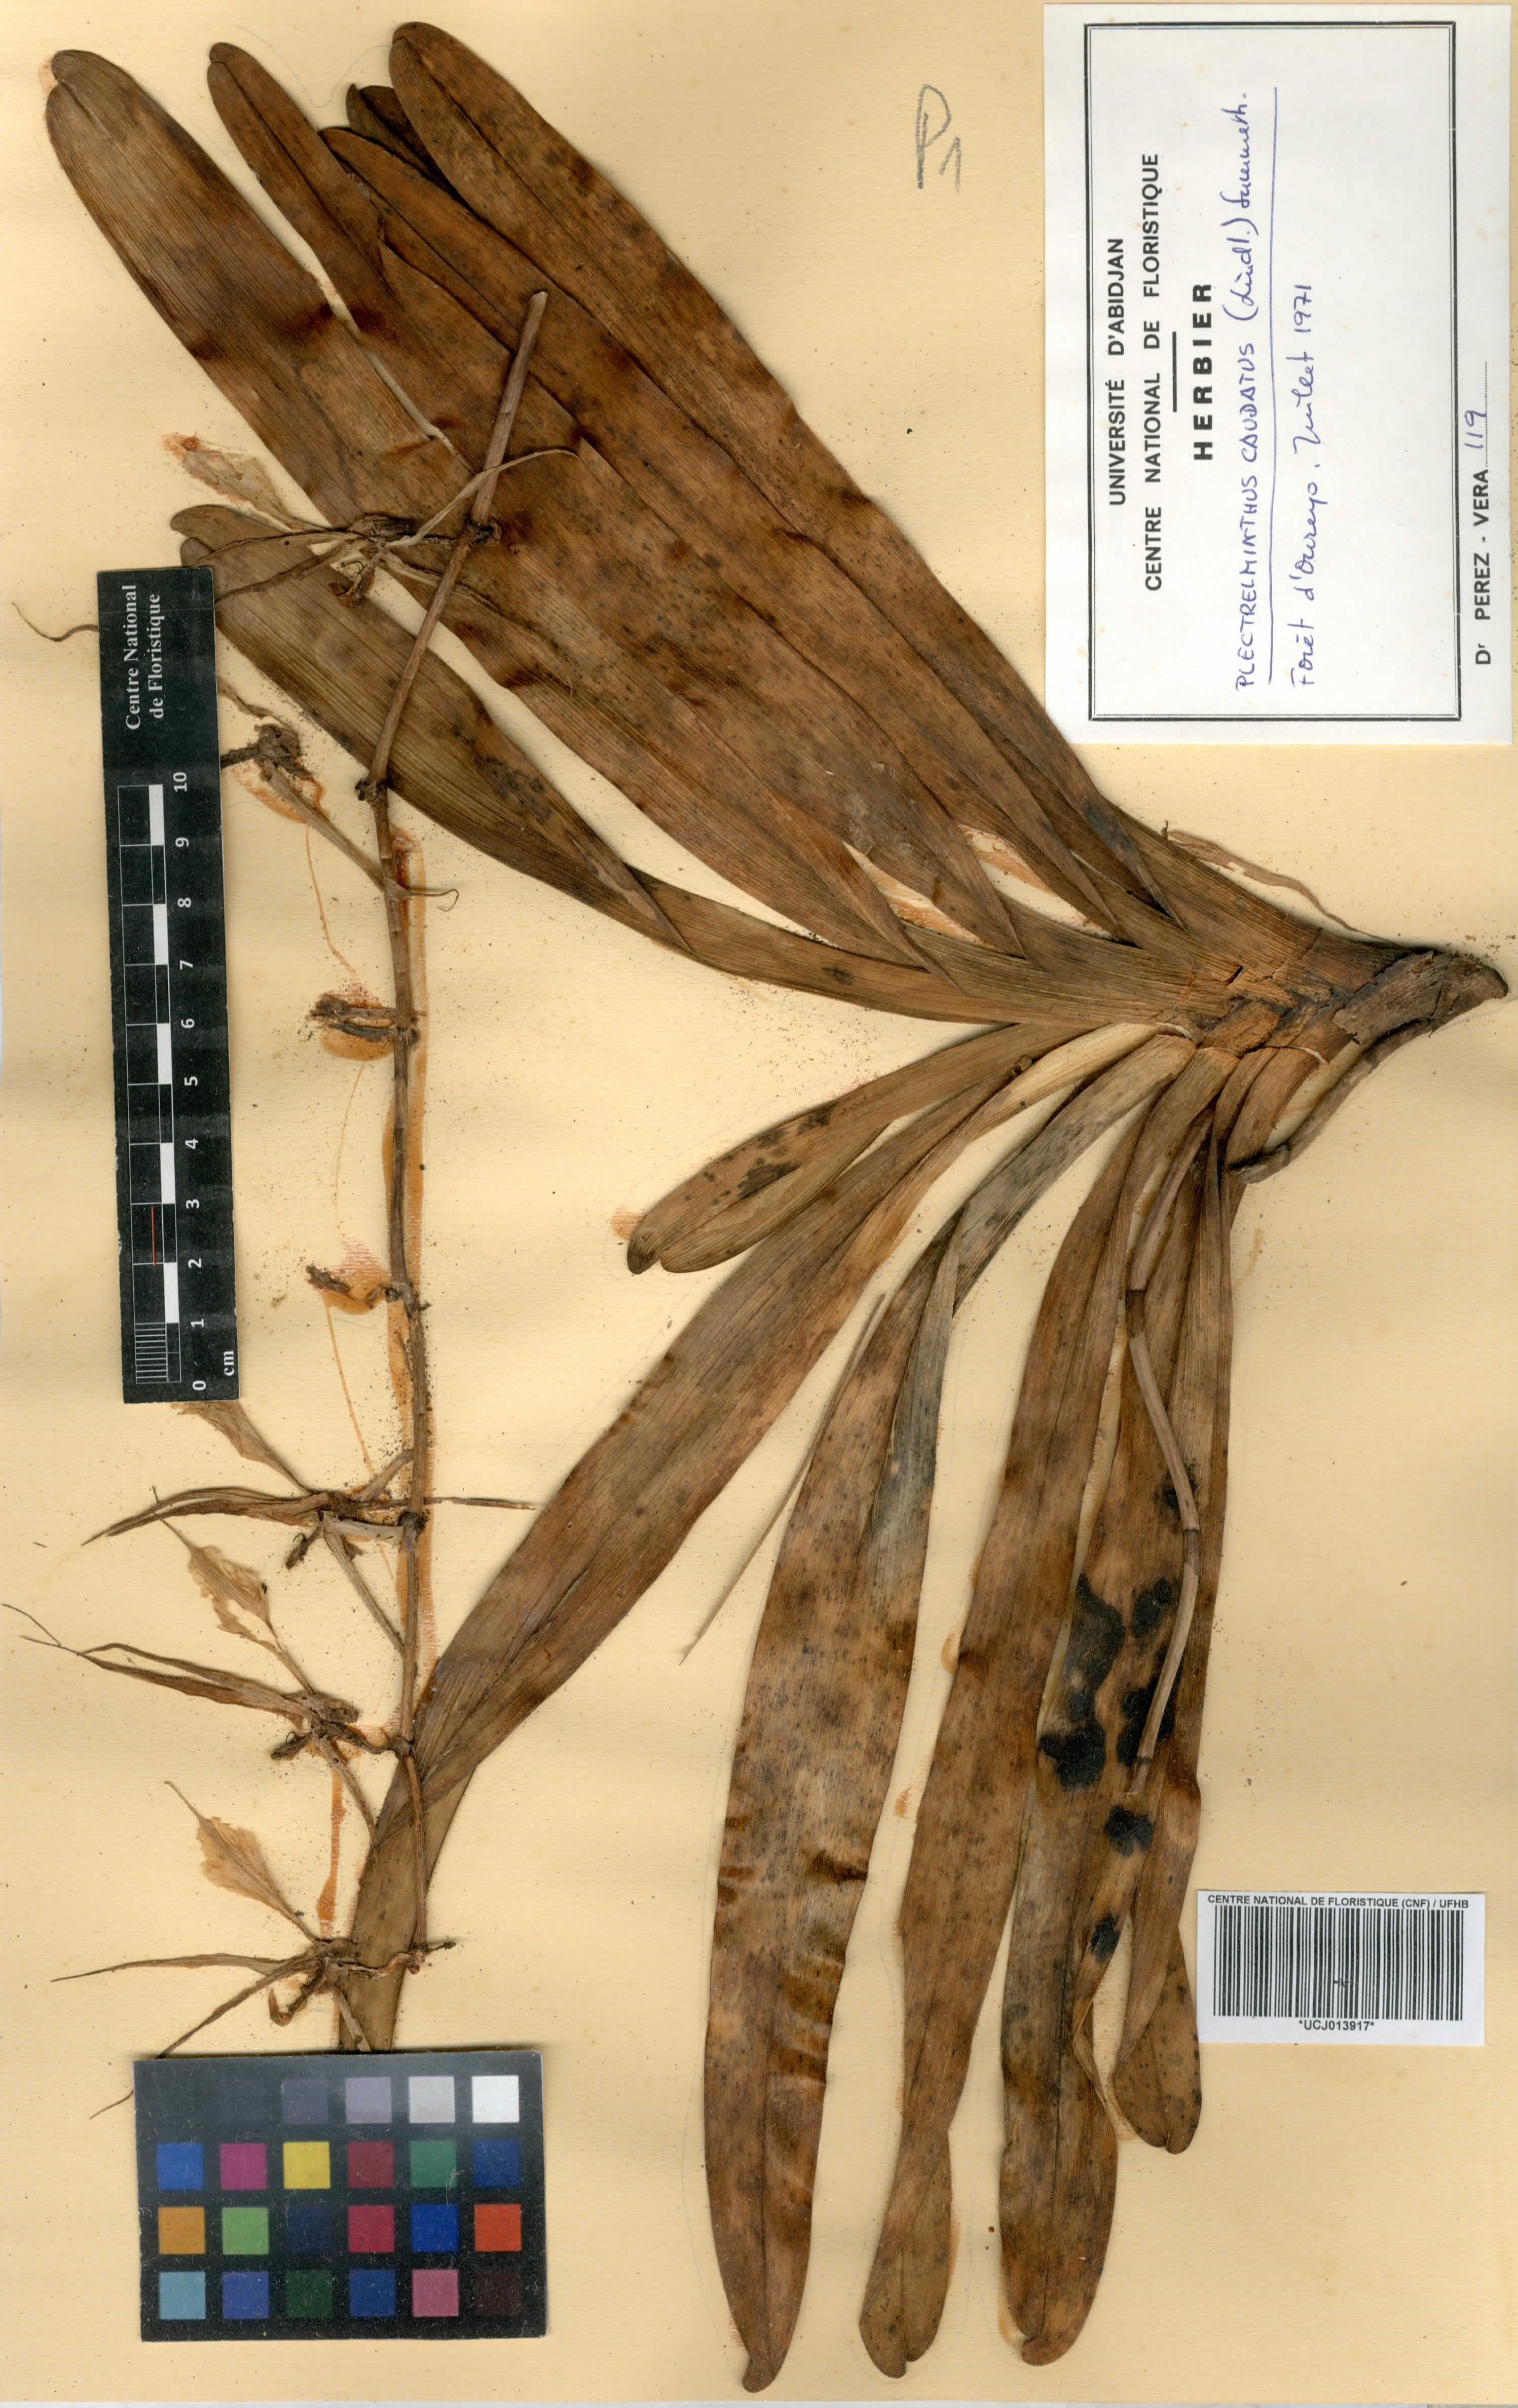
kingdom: Plantae
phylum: Tracheophyta
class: Liliopsida
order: Asparagales
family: Orchidaceae
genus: Plectrelminthus
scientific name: Plectrelminthus caudatus
